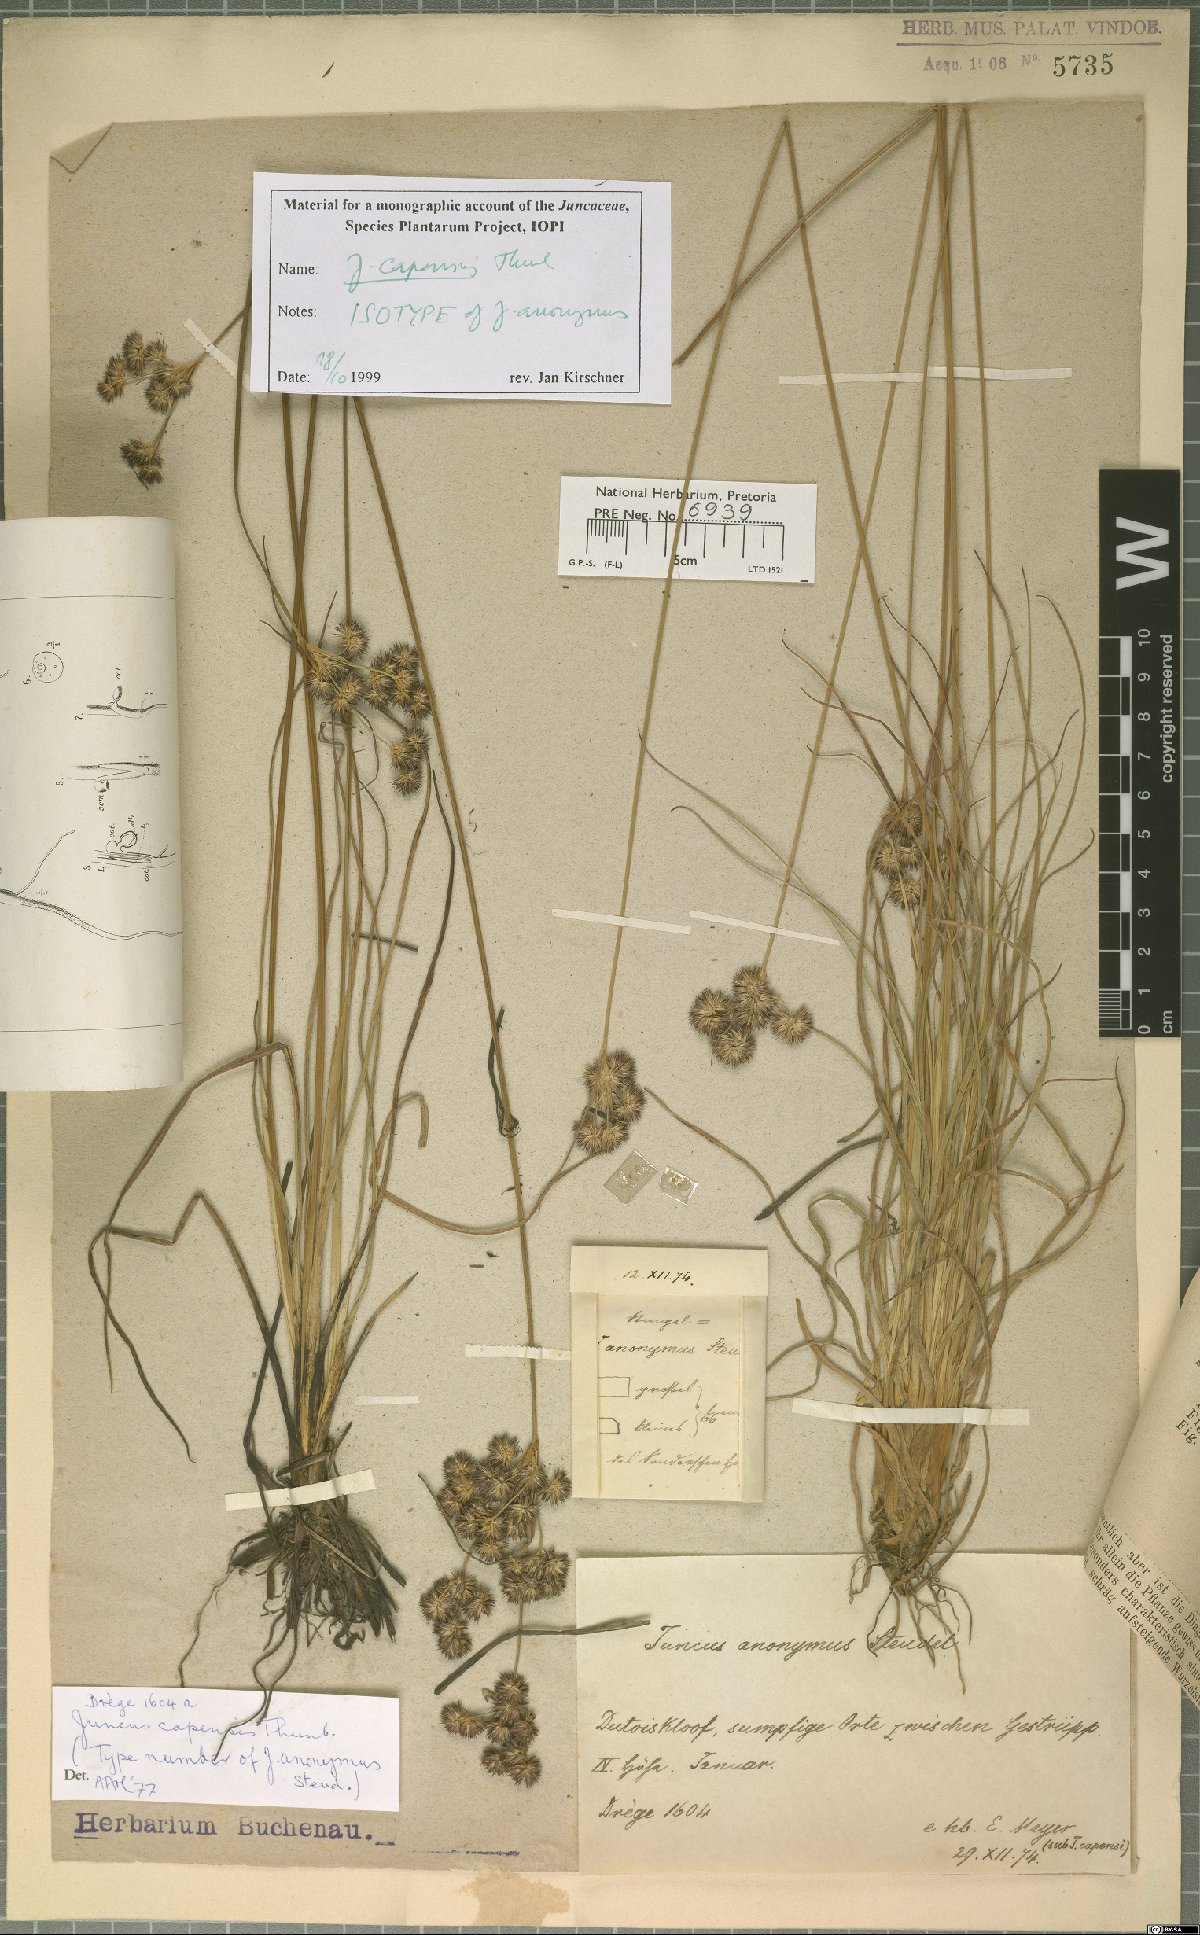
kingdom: Plantae
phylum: Tracheophyta
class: Liliopsida
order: Poales
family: Juncaceae
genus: Juncus
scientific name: Juncus capensis
